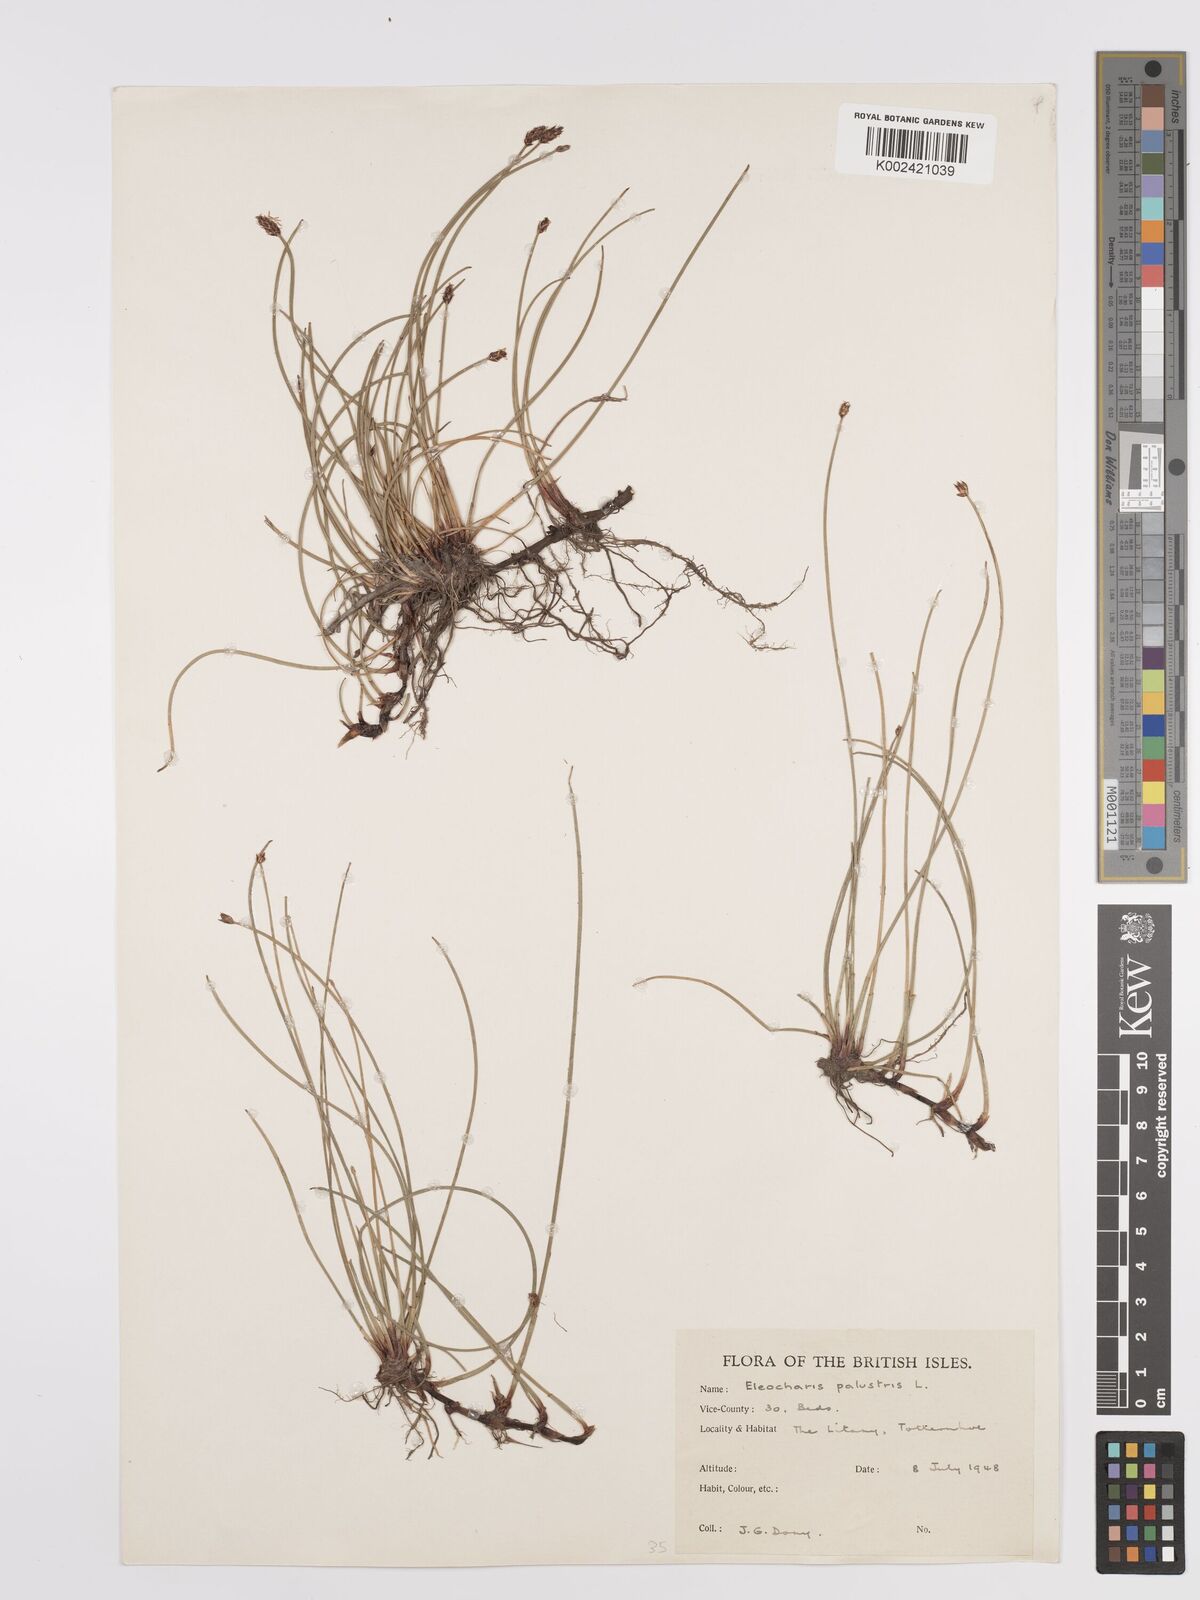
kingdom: Plantae
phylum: Tracheophyta
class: Liliopsida
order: Poales
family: Cyperaceae
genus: Eleocharis
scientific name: Eleocharis palustris
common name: Common spike-rush
